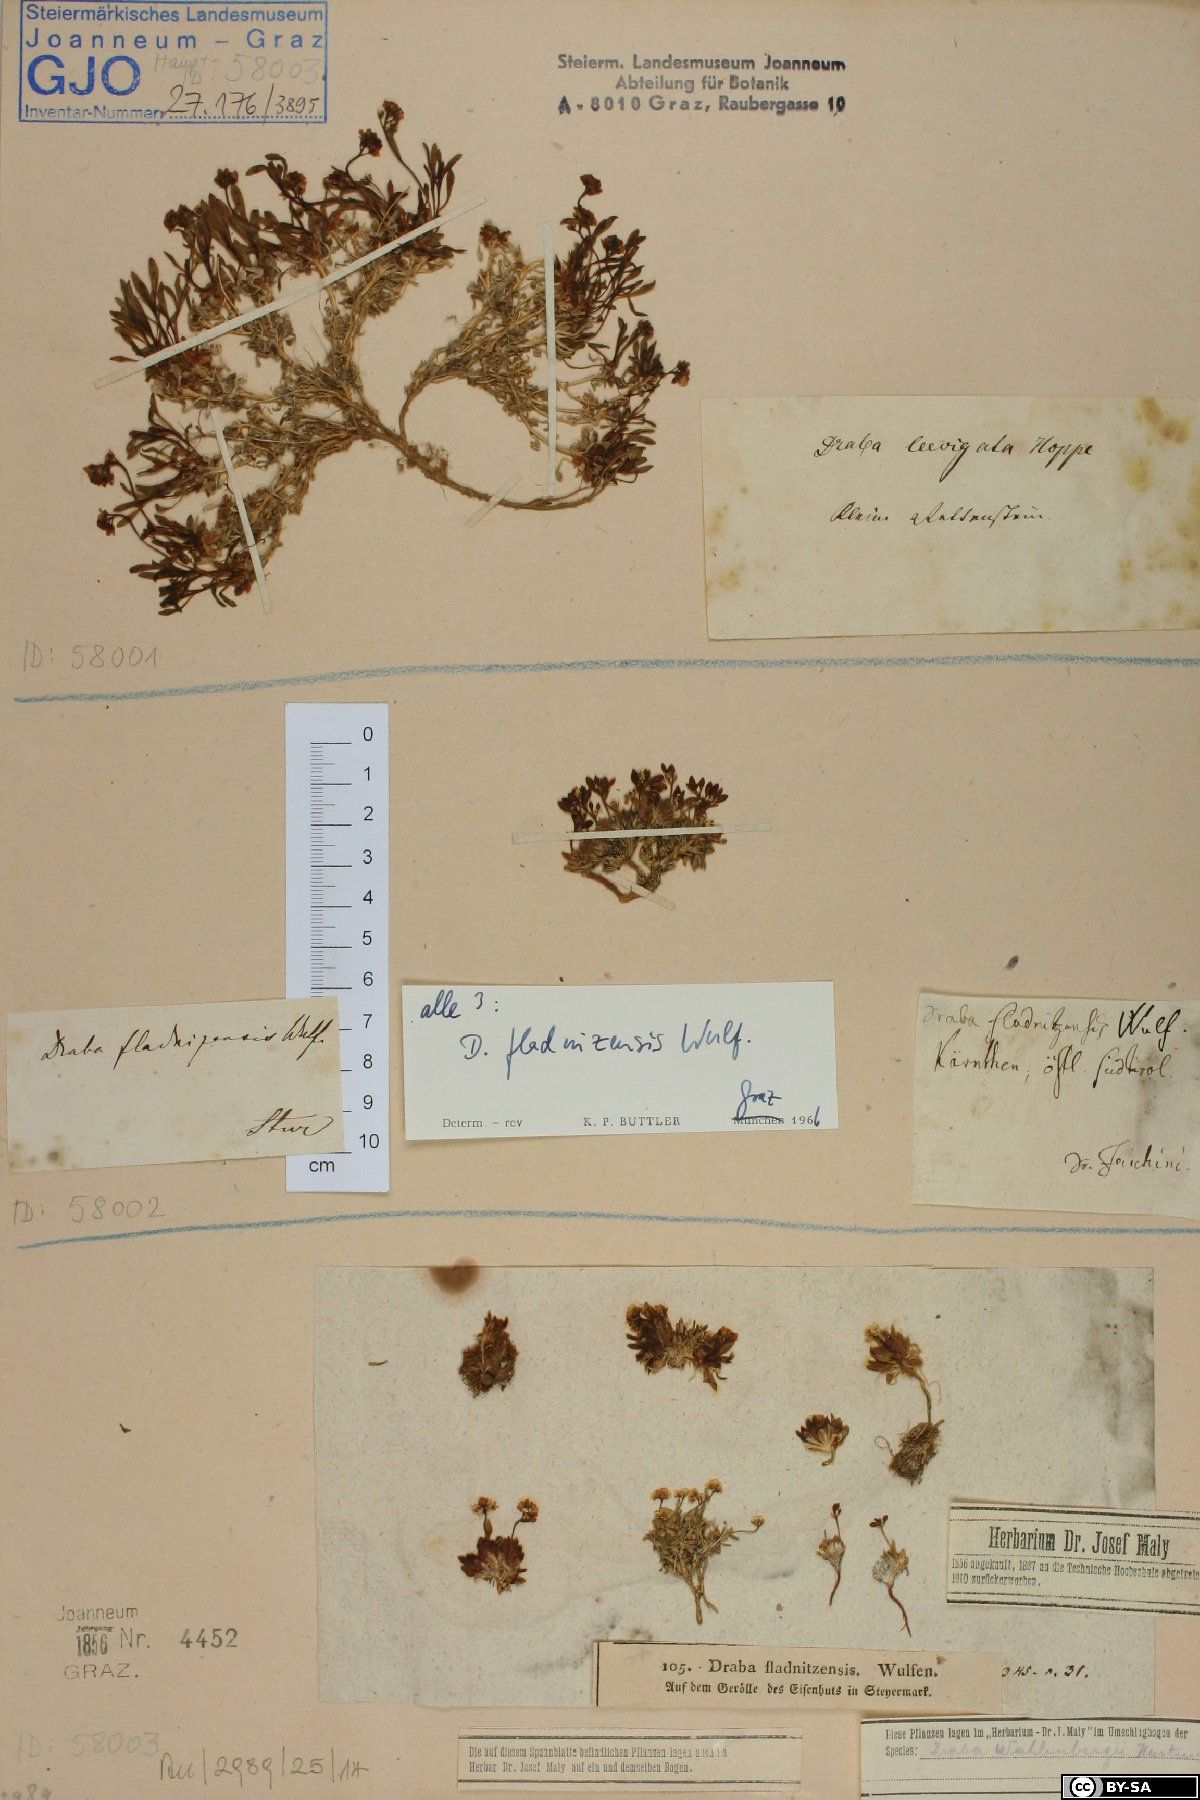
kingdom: Plantae
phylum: Tracheophyta
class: Magnoliopsida
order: Brassicales
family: Brassicaceae
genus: Draba
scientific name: Draba fladnizensis
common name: Austrian draba
